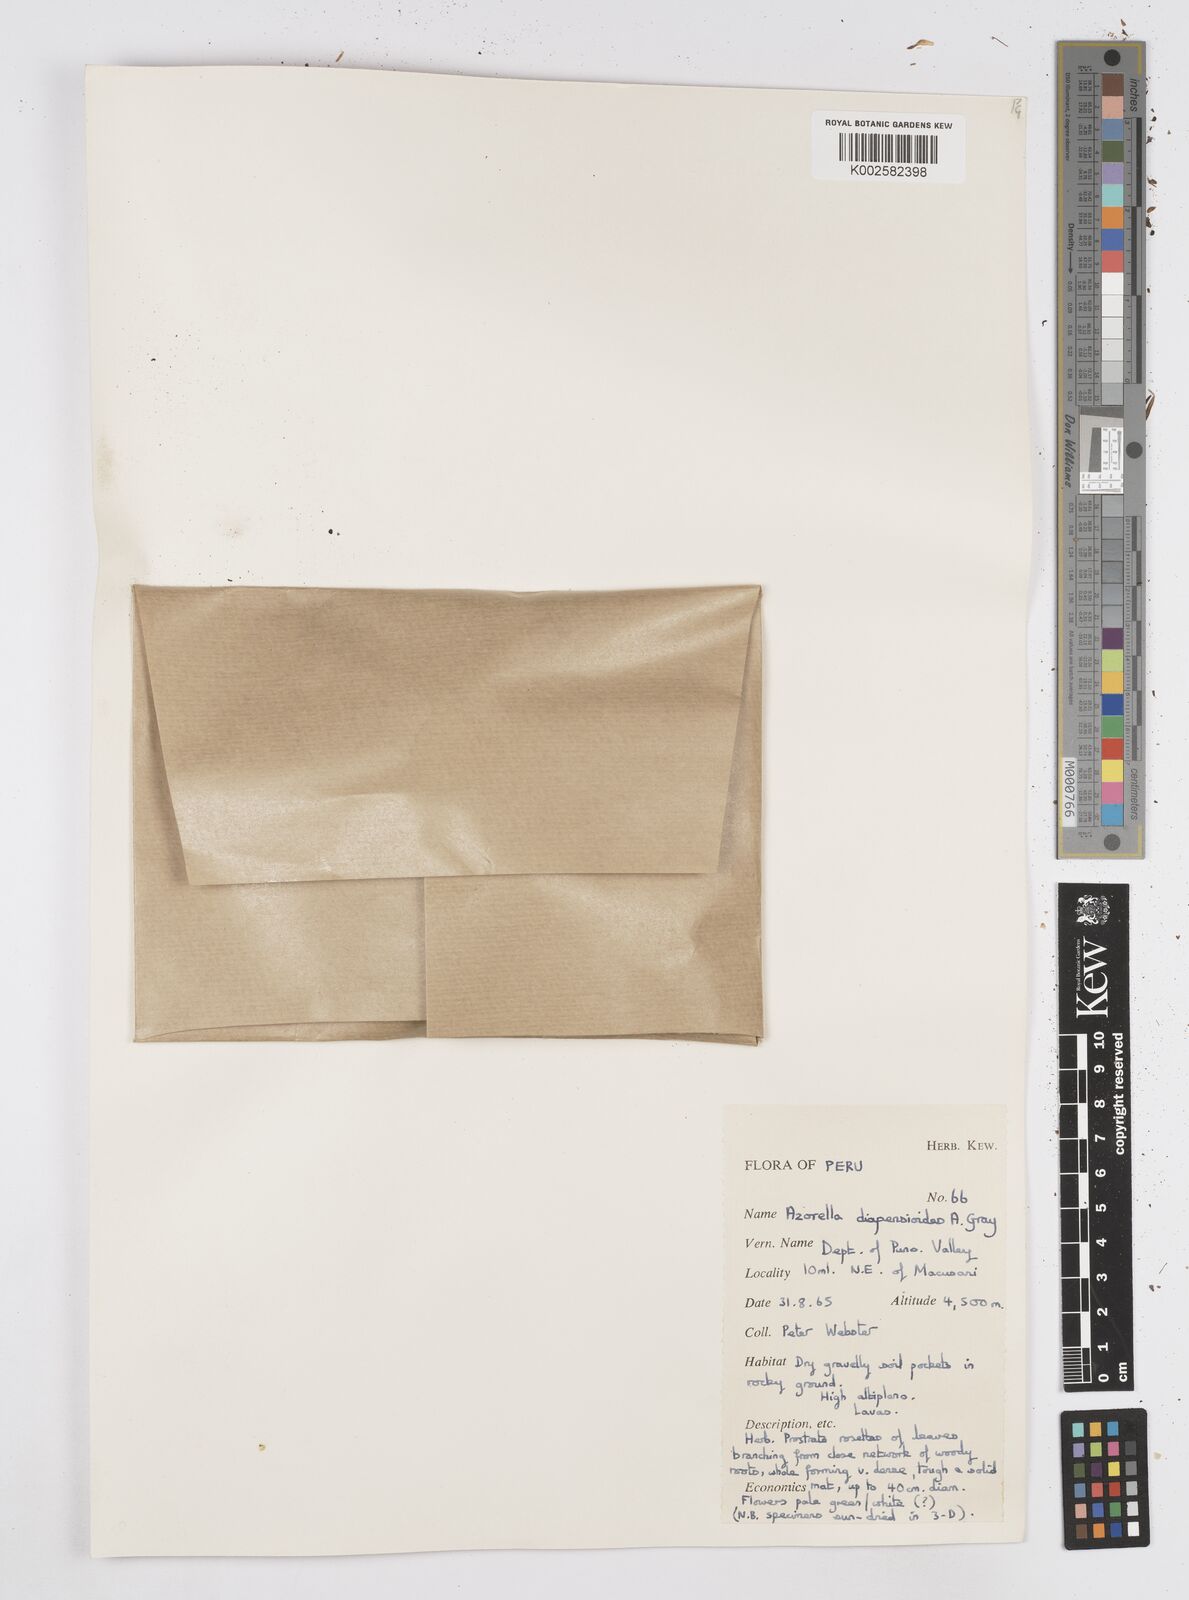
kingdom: Plantae
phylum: Tracheophyta
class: Magnoliopsida
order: Apiales
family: Apiaceae
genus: Azorella
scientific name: Azorella diapensioides
